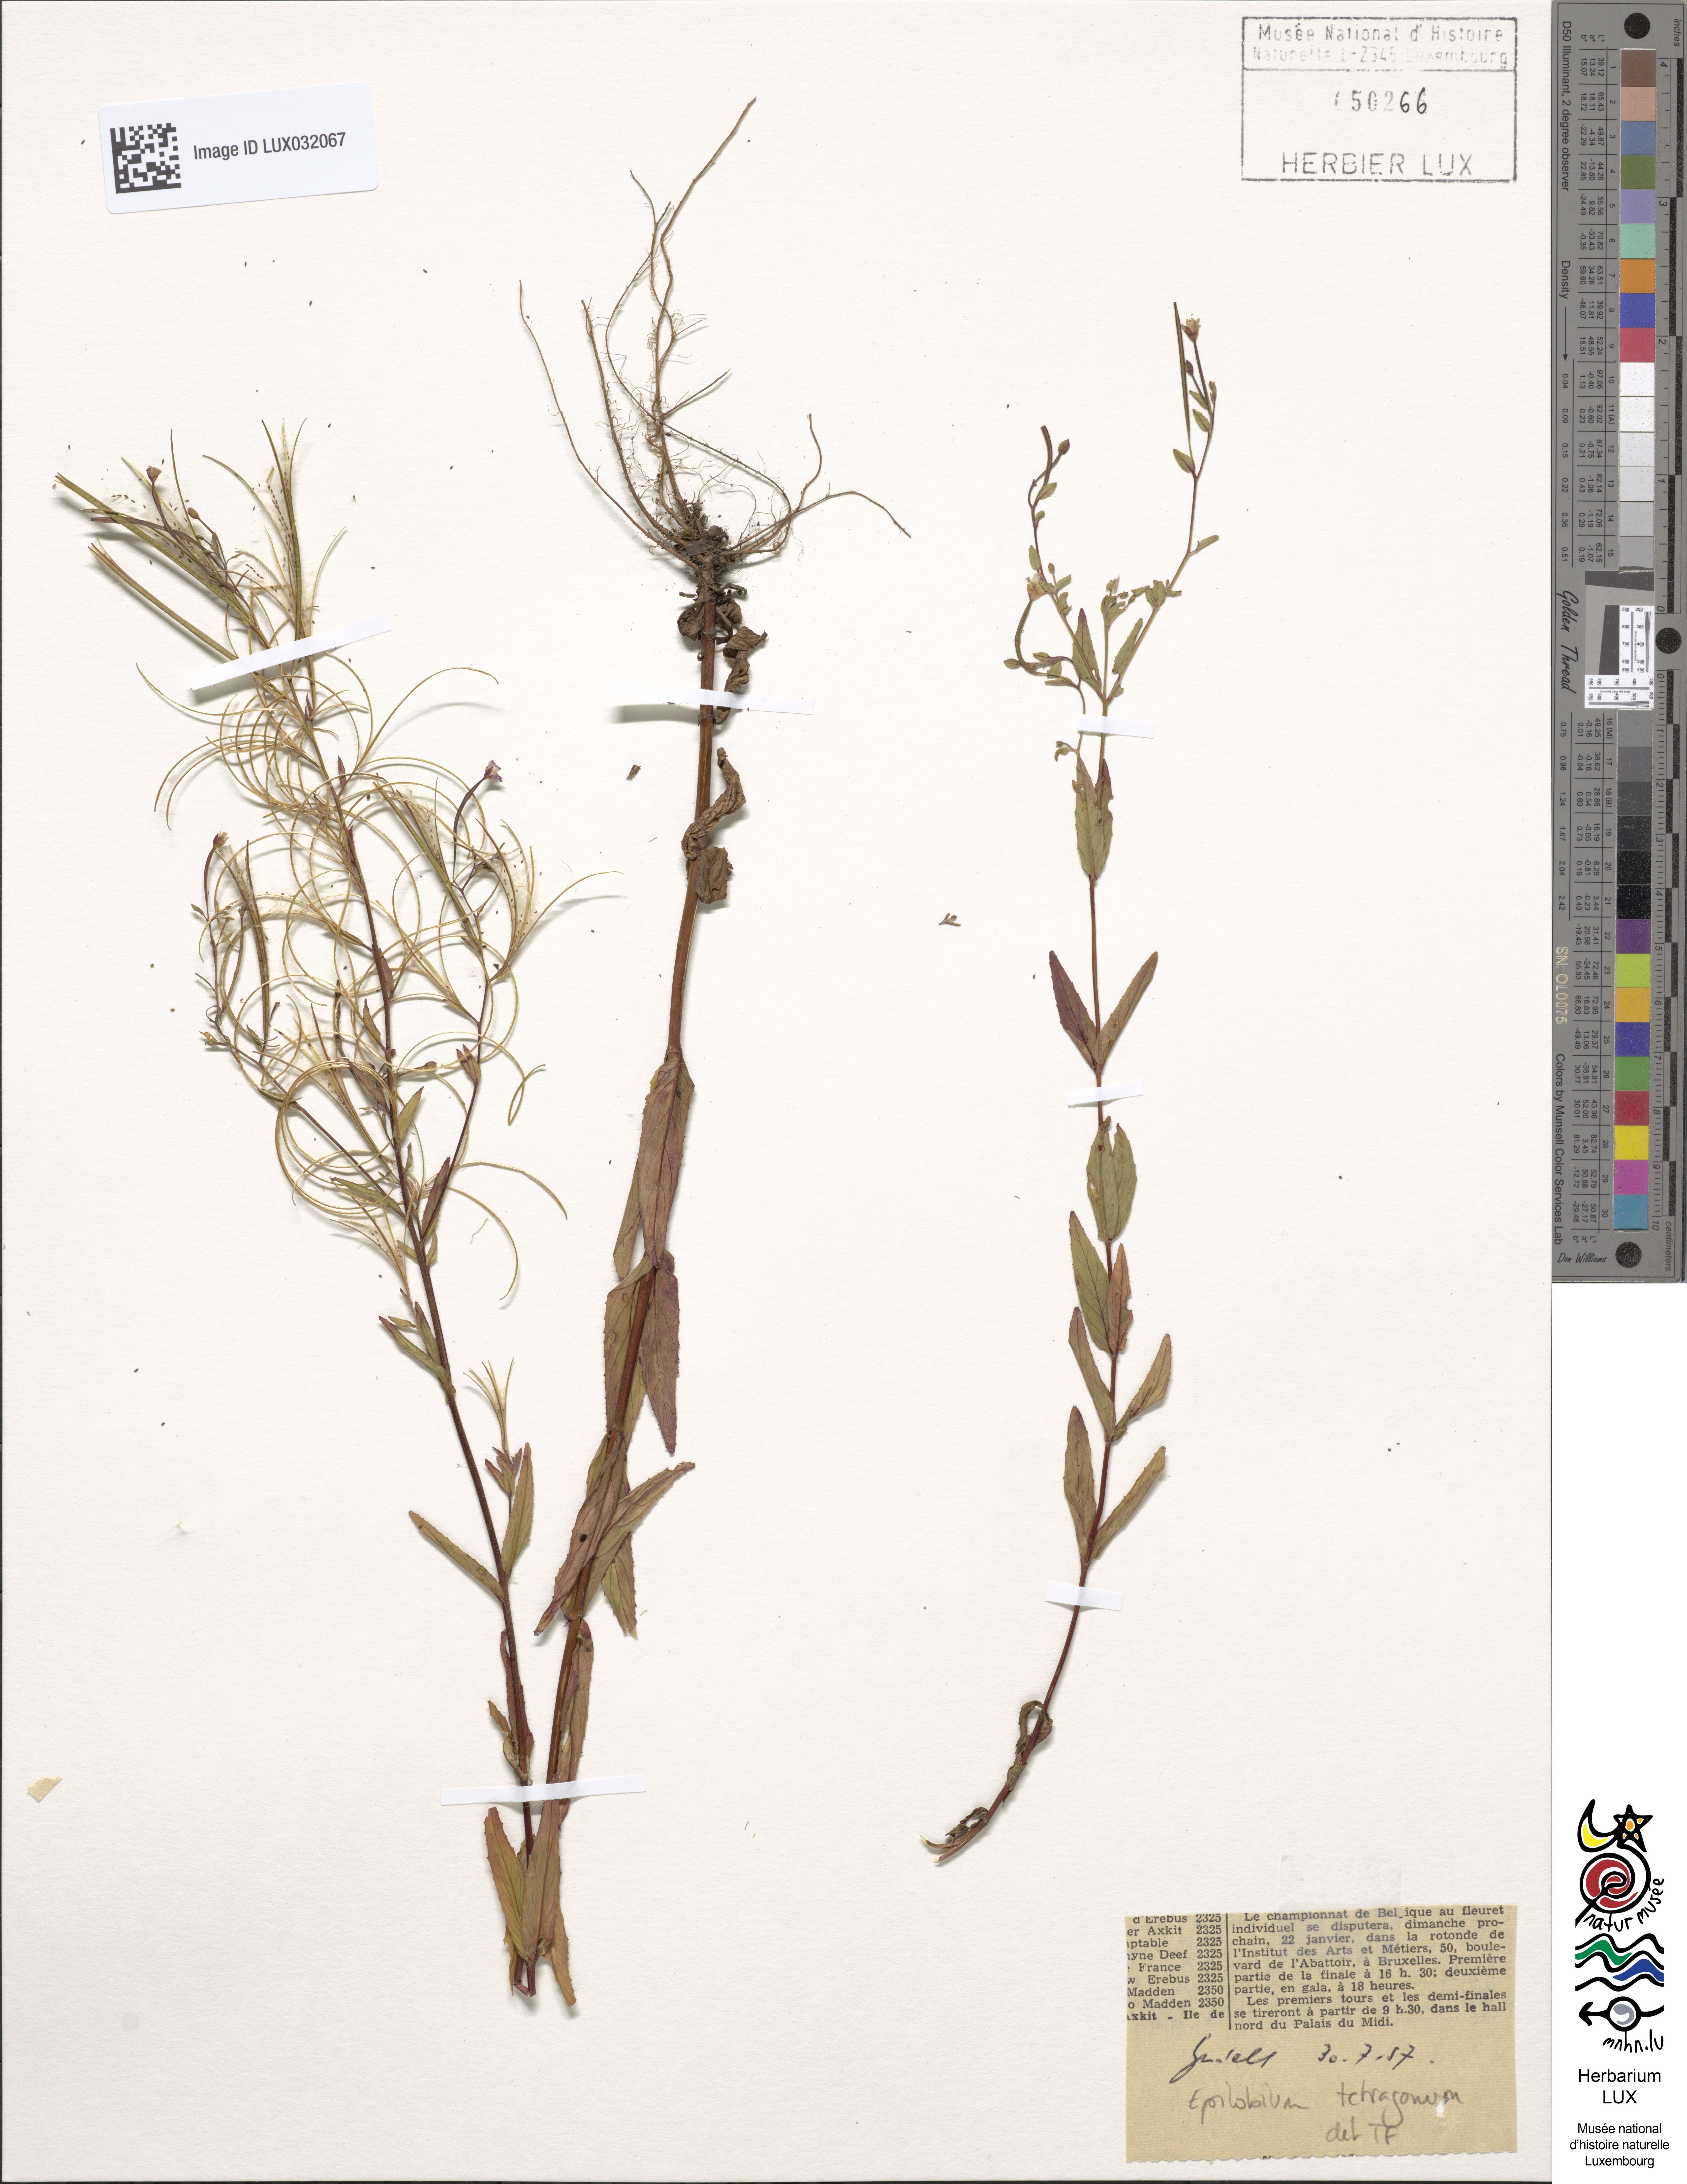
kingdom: Plantae
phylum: Tracheophyta
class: Magnoliopsida
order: Myrtales
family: Onagraceae
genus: Epilobium
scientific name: Epilobium tetragonum
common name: Square-stemmed willowherb
